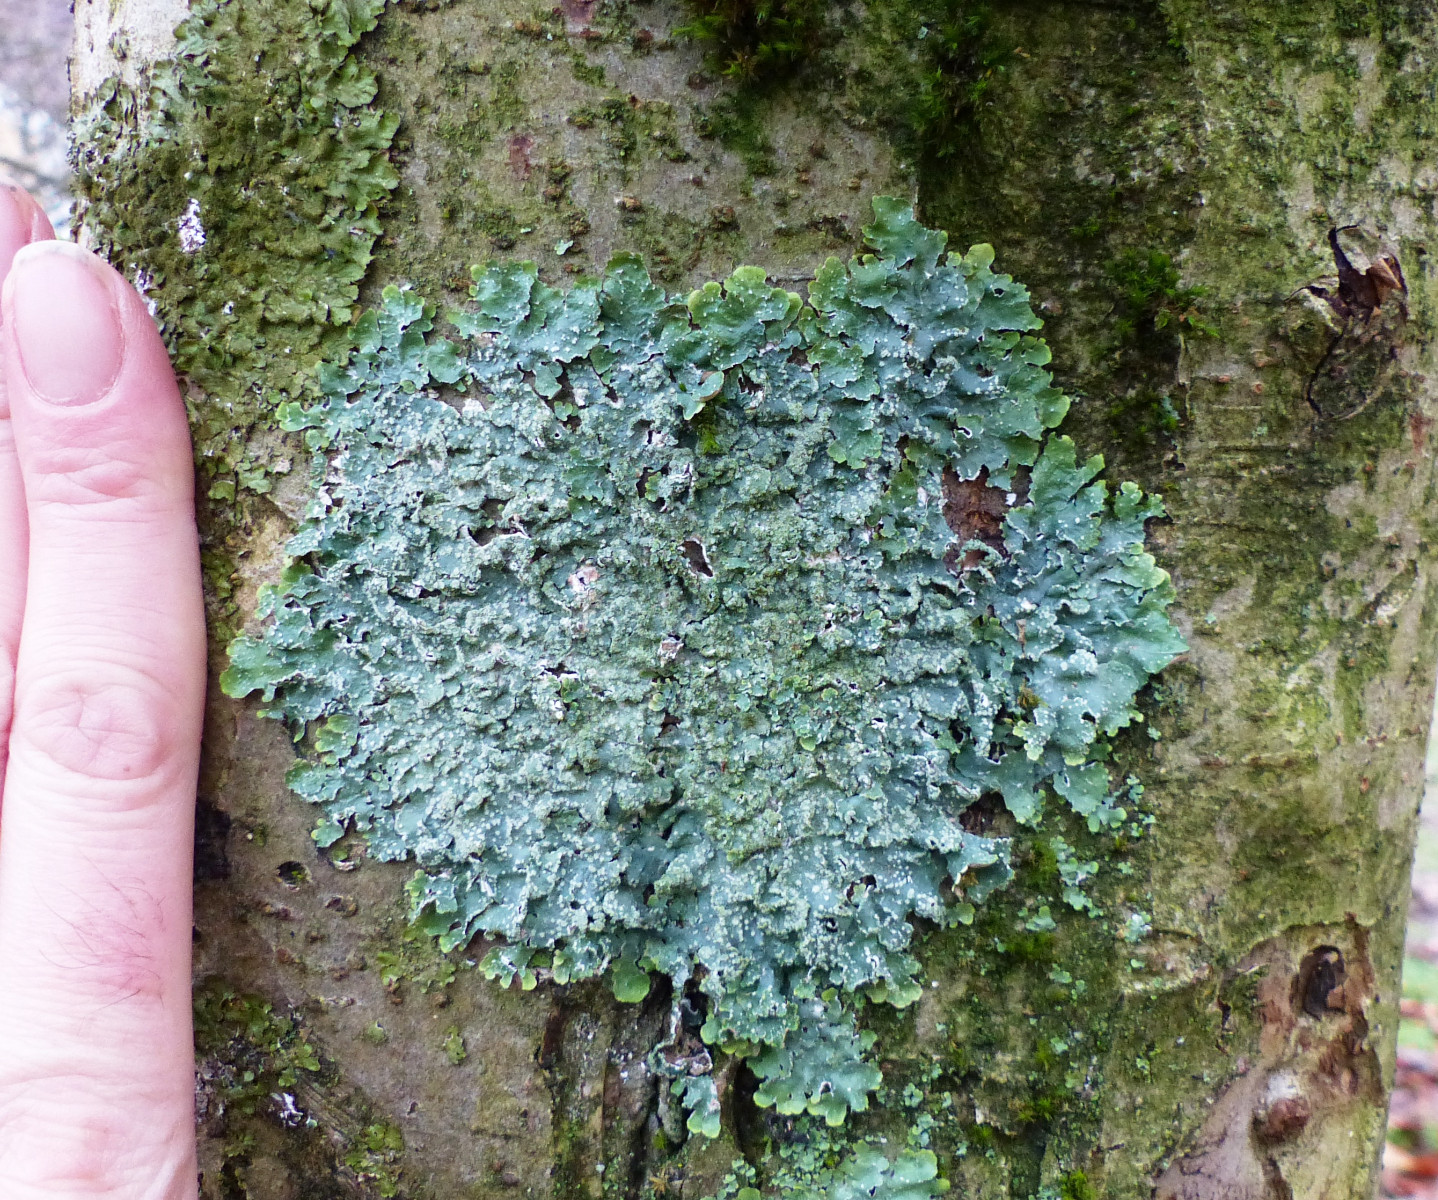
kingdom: Fungi
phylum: Ascomycota
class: Lecanoromycetes
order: Lecanorales
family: Parmeliaceae
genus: Punctelia
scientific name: Punctelia subrudecta
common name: punkt-skållav
